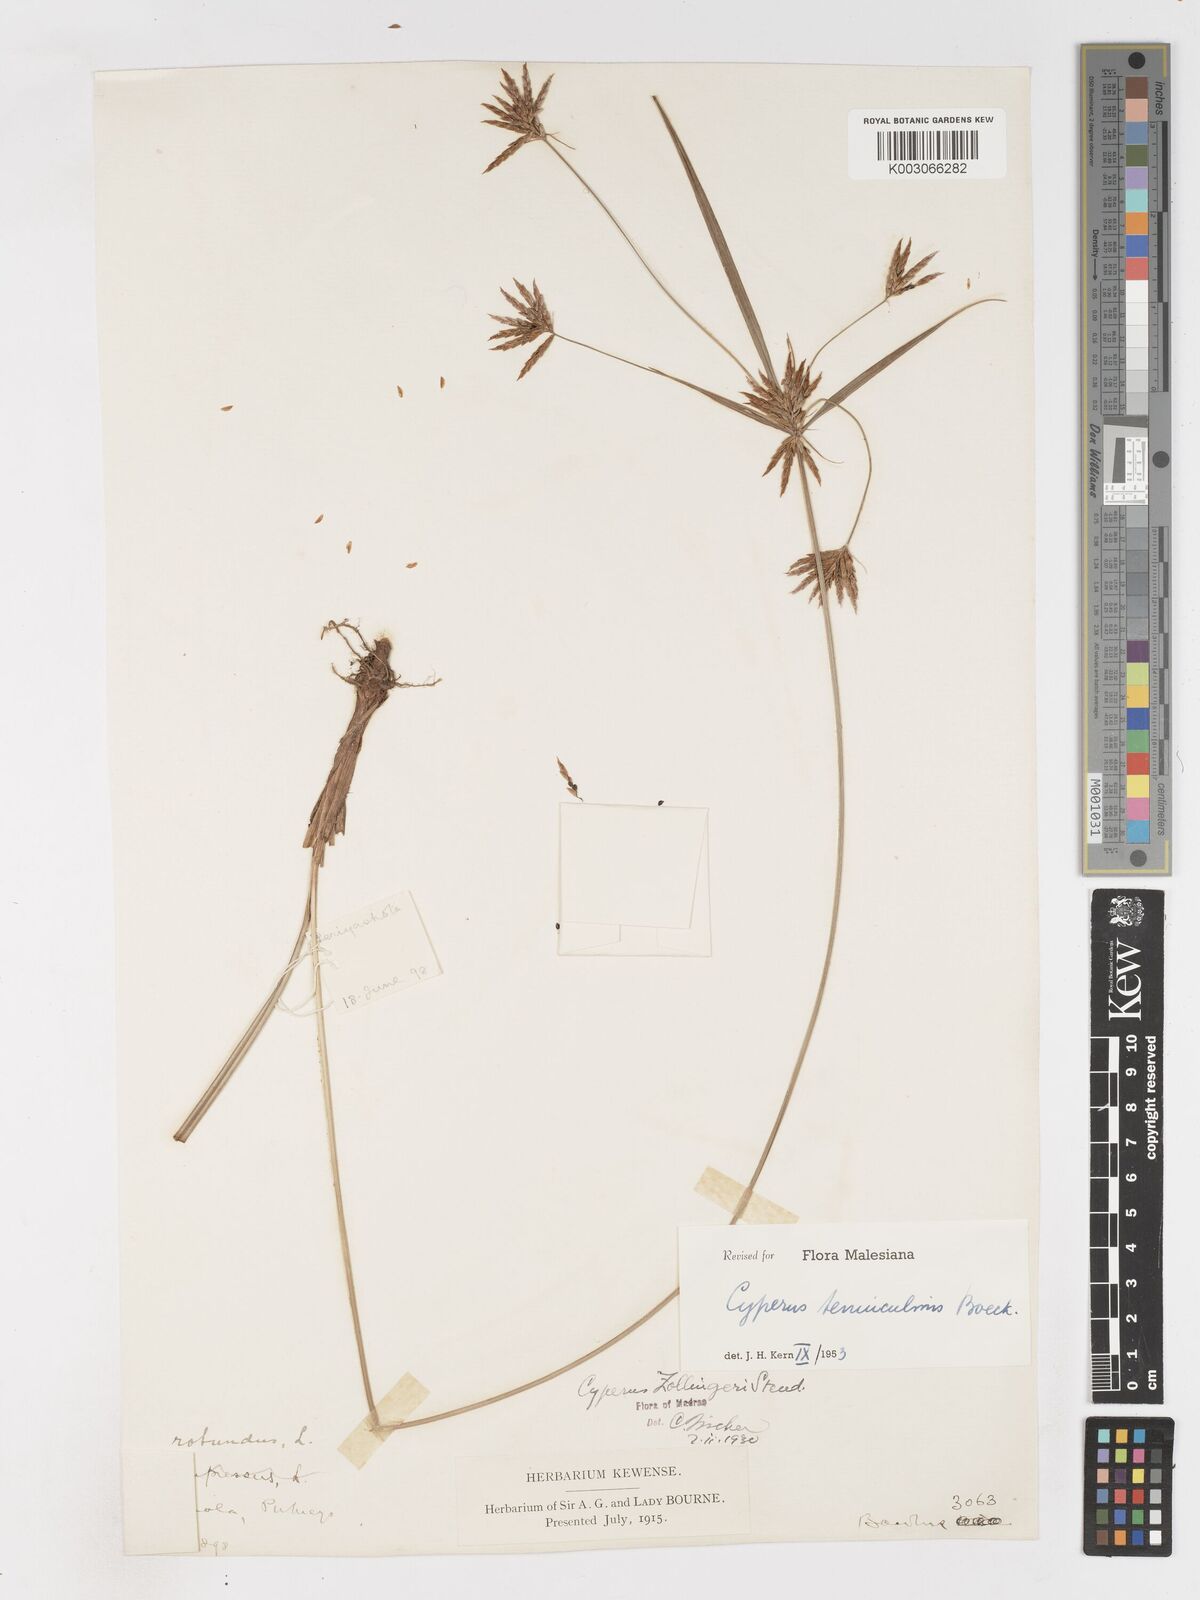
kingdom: Plantae
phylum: Tracheophyta
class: Liliopsida
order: Poales
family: Cyperaceae
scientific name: Cyperaceae
